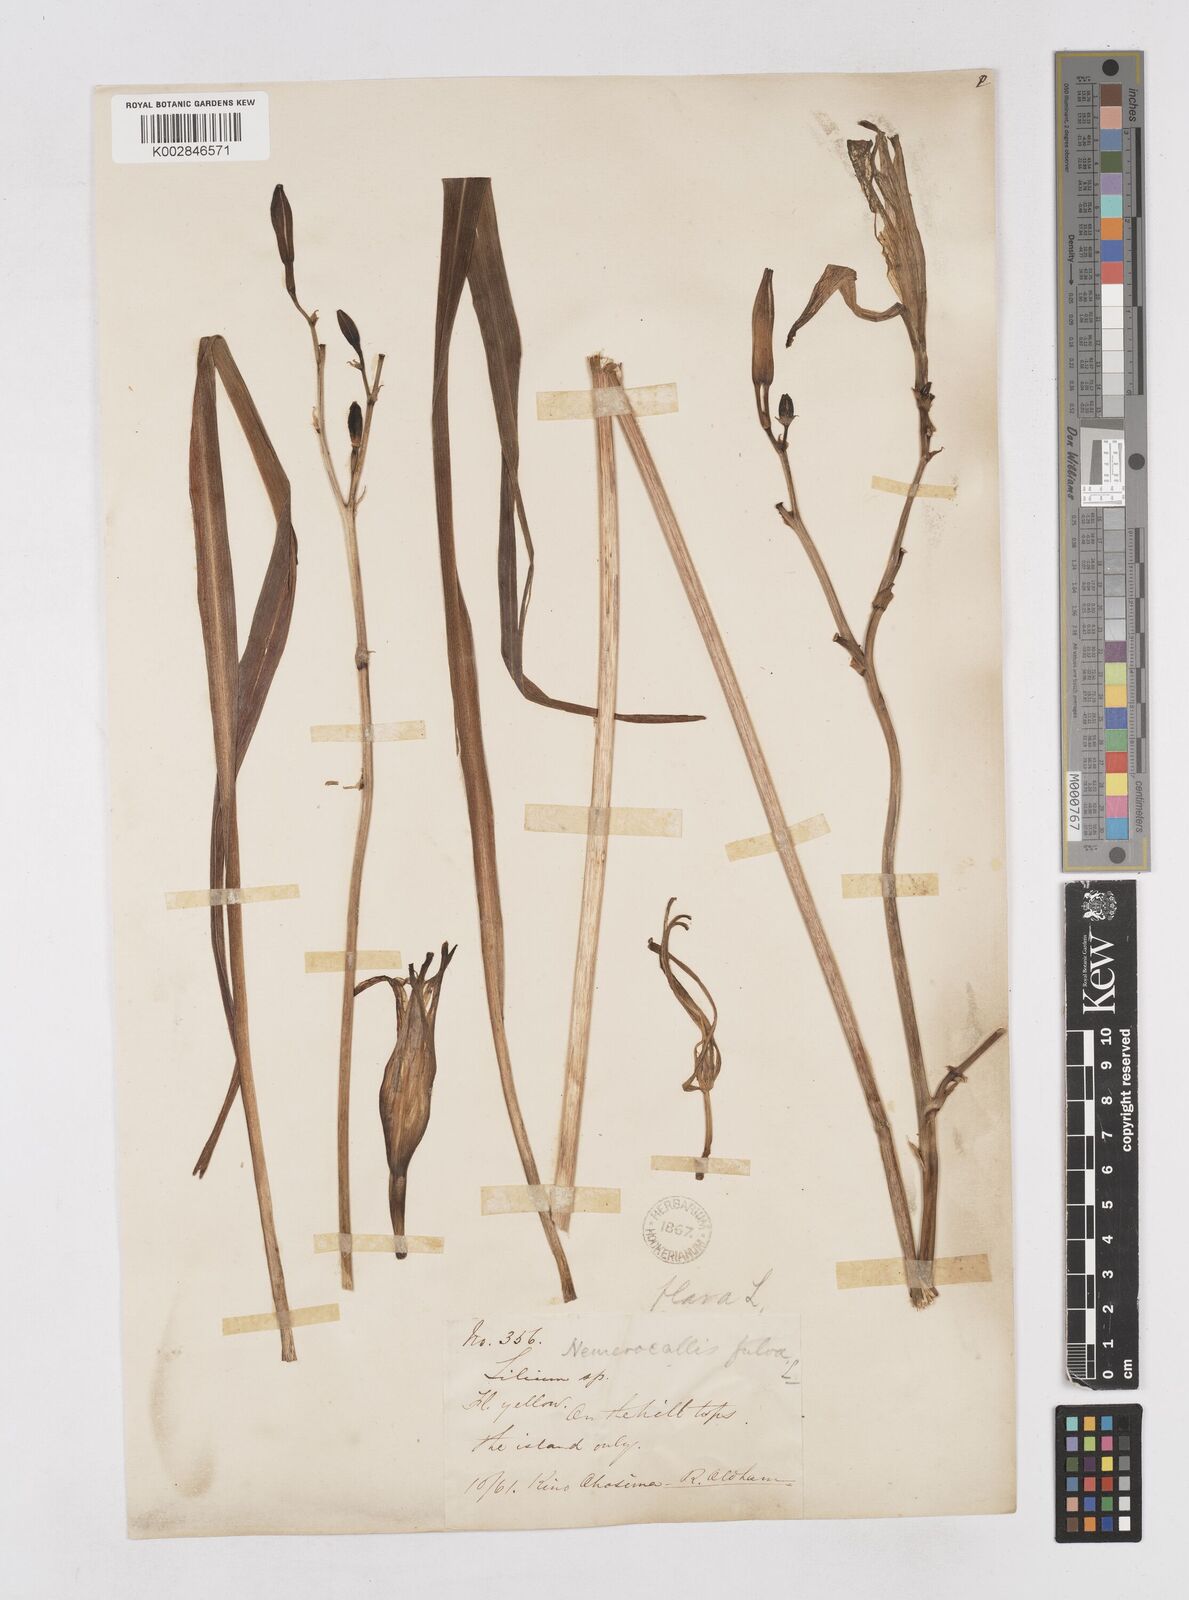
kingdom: Plantae
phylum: Tracheophyta
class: Liliopsida
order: Asparagales
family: Asphodelaceae
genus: Hemerocallis
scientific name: Hemerocallis lilioasphodelus
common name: Yellow day-lily
